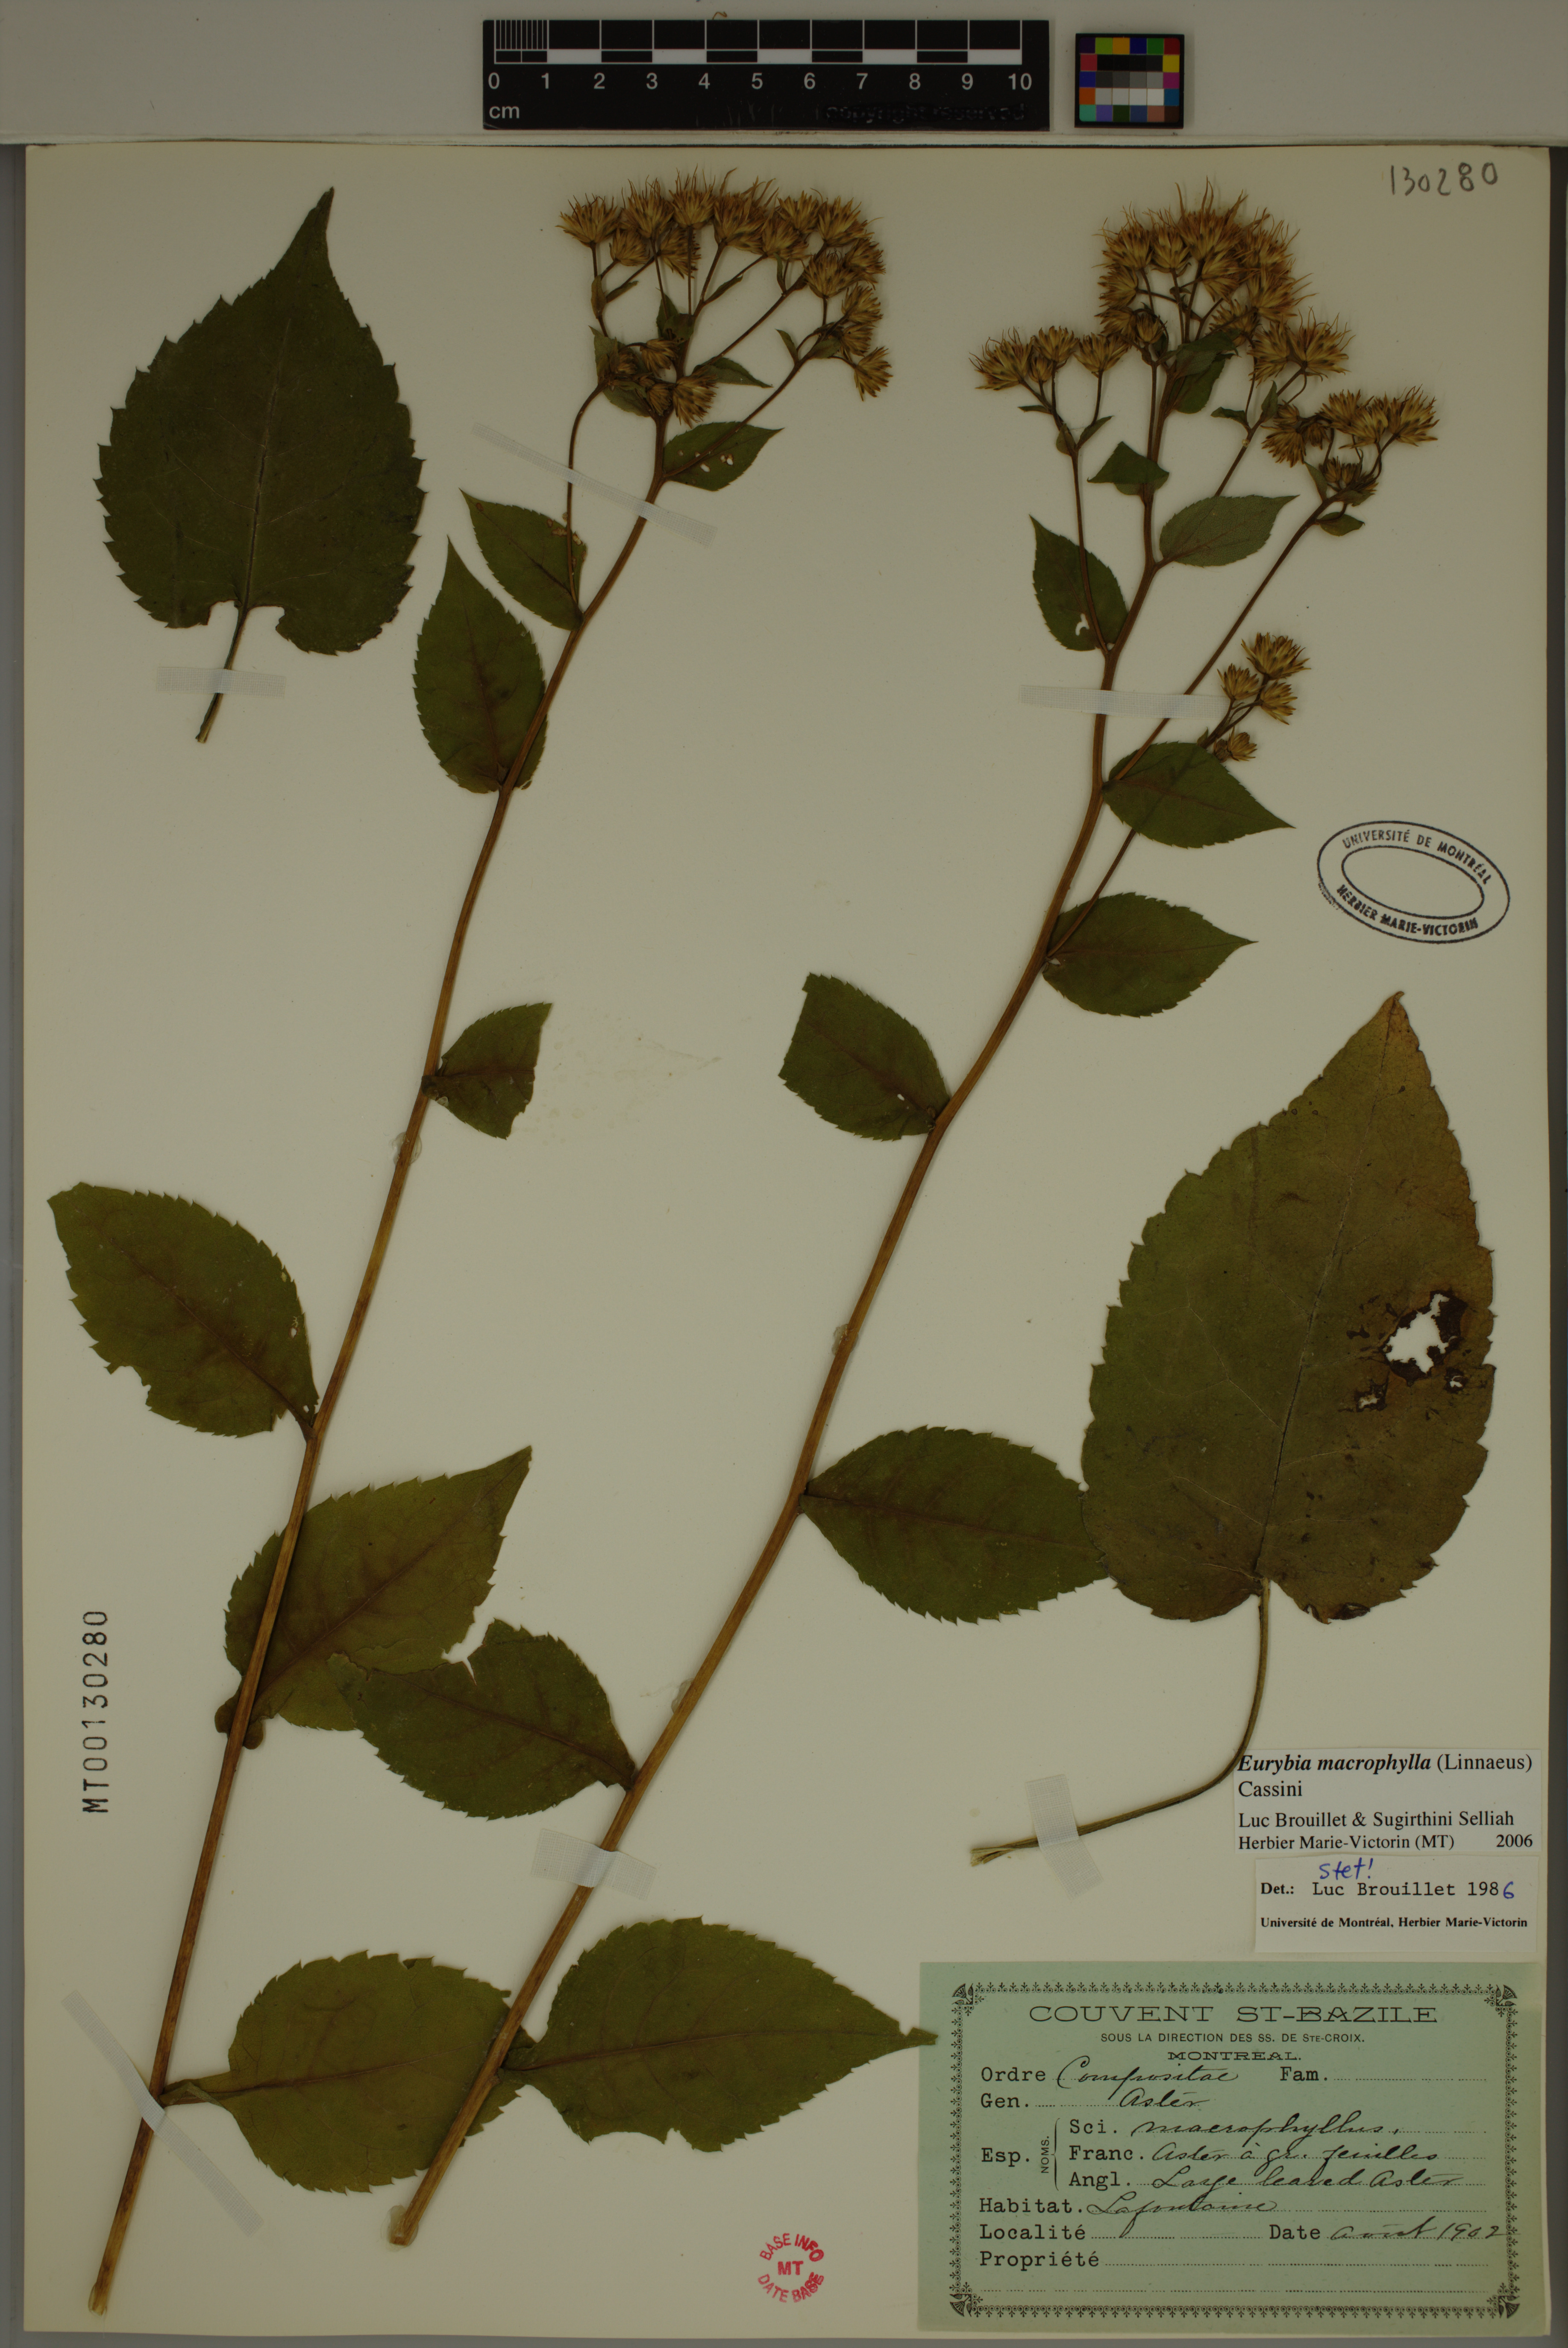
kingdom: Plantae
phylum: Tracheophyta
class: Magnoliopsida
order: Asterales
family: Asteraceae
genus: Eurybia
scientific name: Eurybia macrophylla
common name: Big-leaved aster
